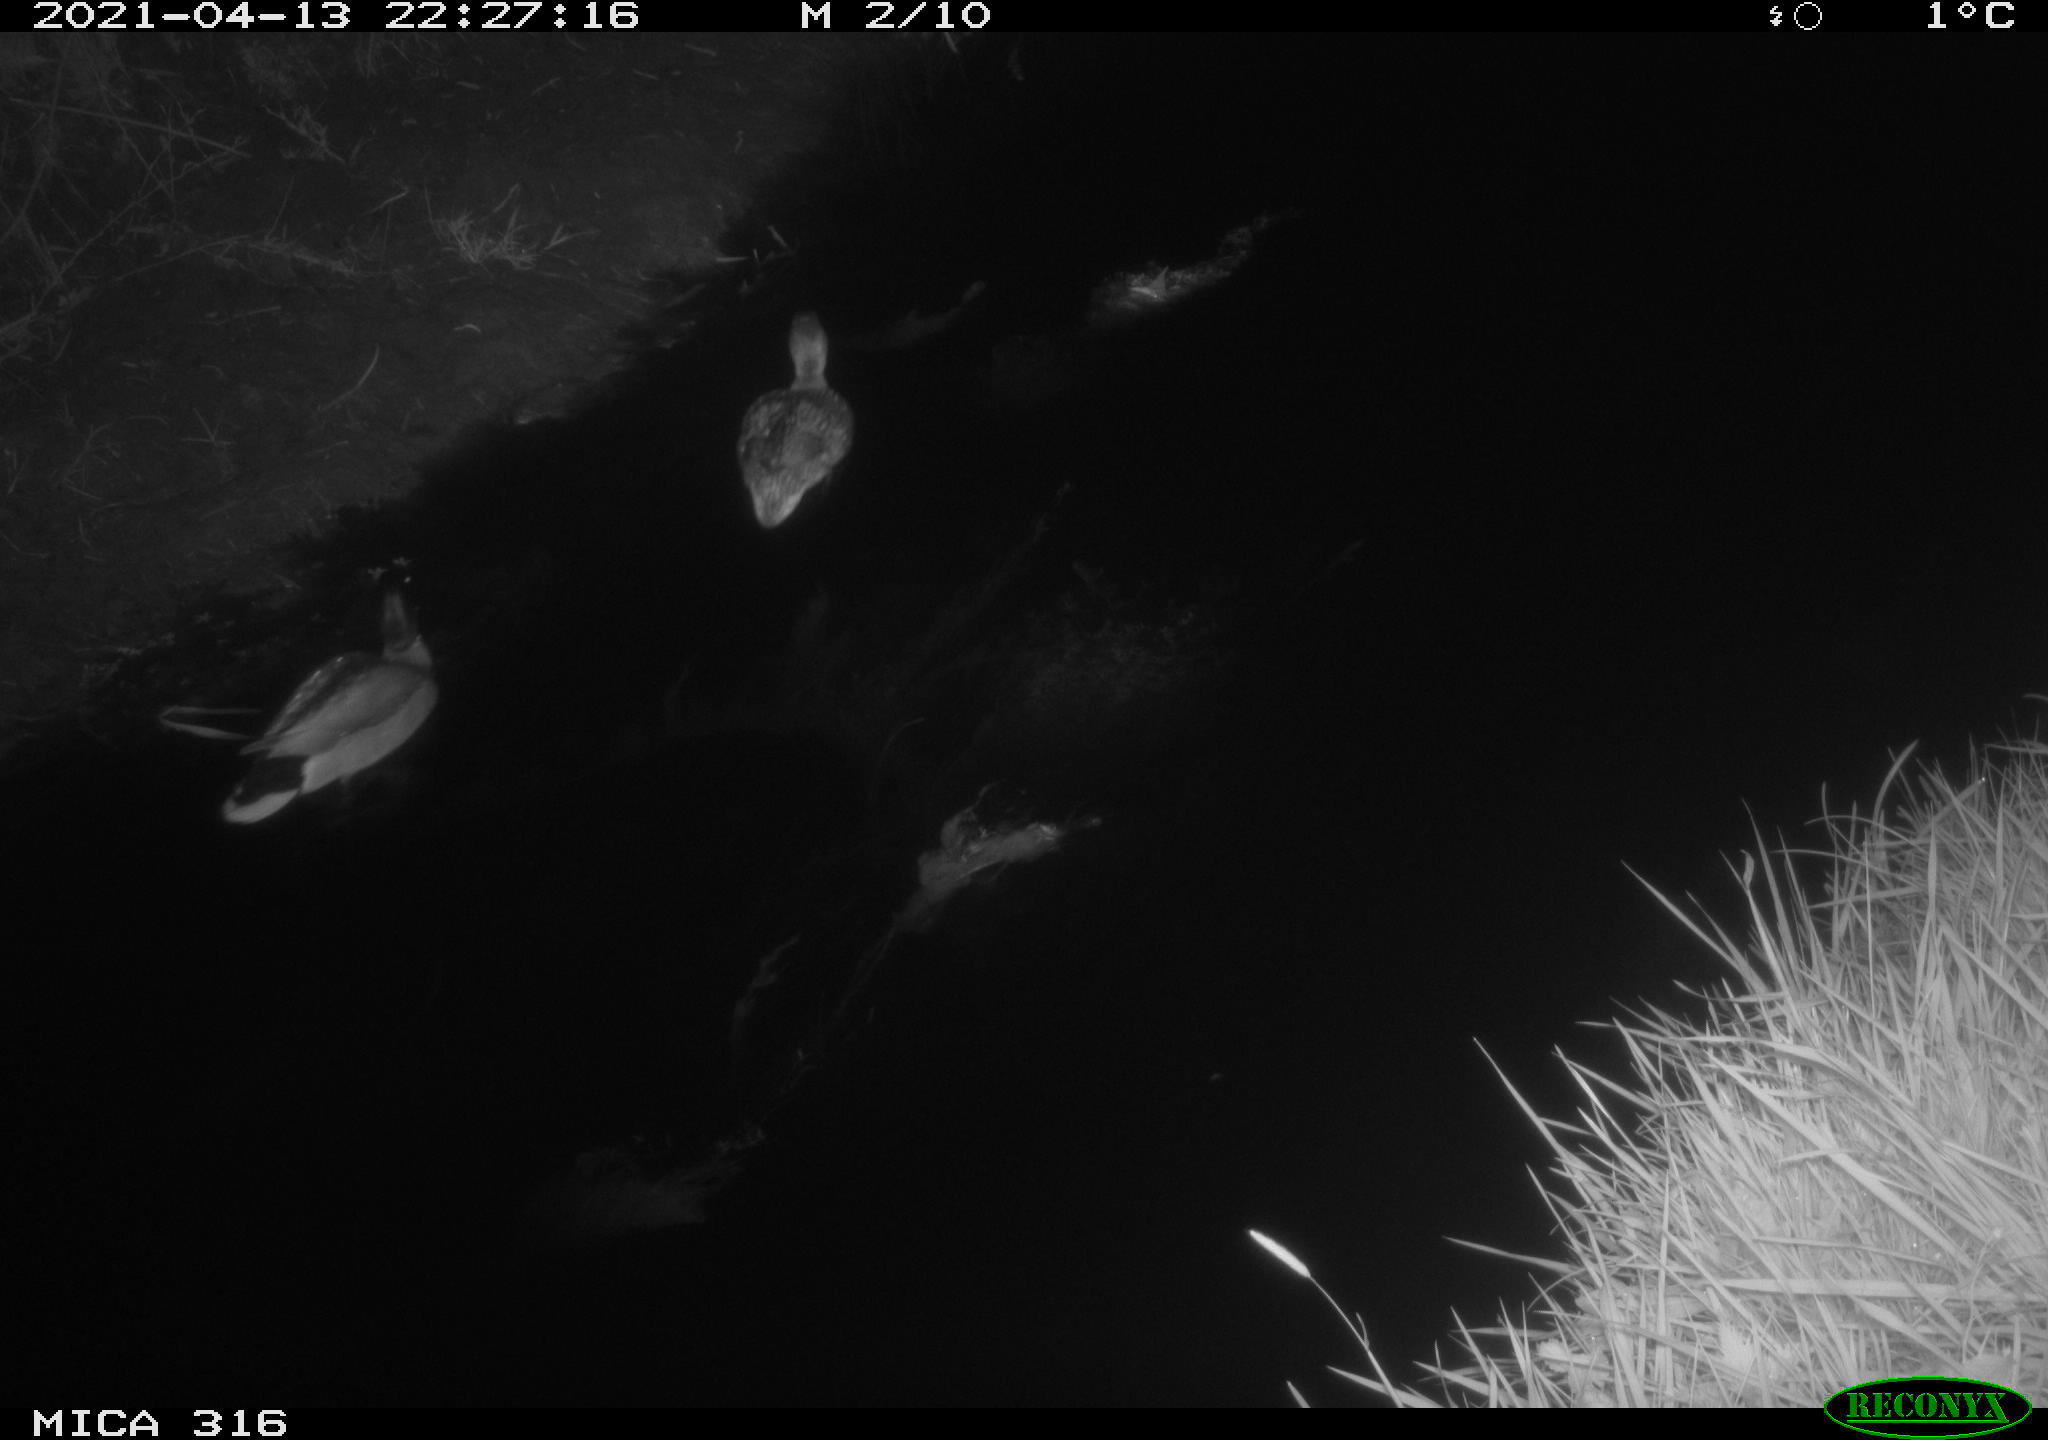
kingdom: Animalia
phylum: Chordata
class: Aves
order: Anseriformes
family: Anatidae
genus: Anas
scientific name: Anas platyrhynchos
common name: Mallard
